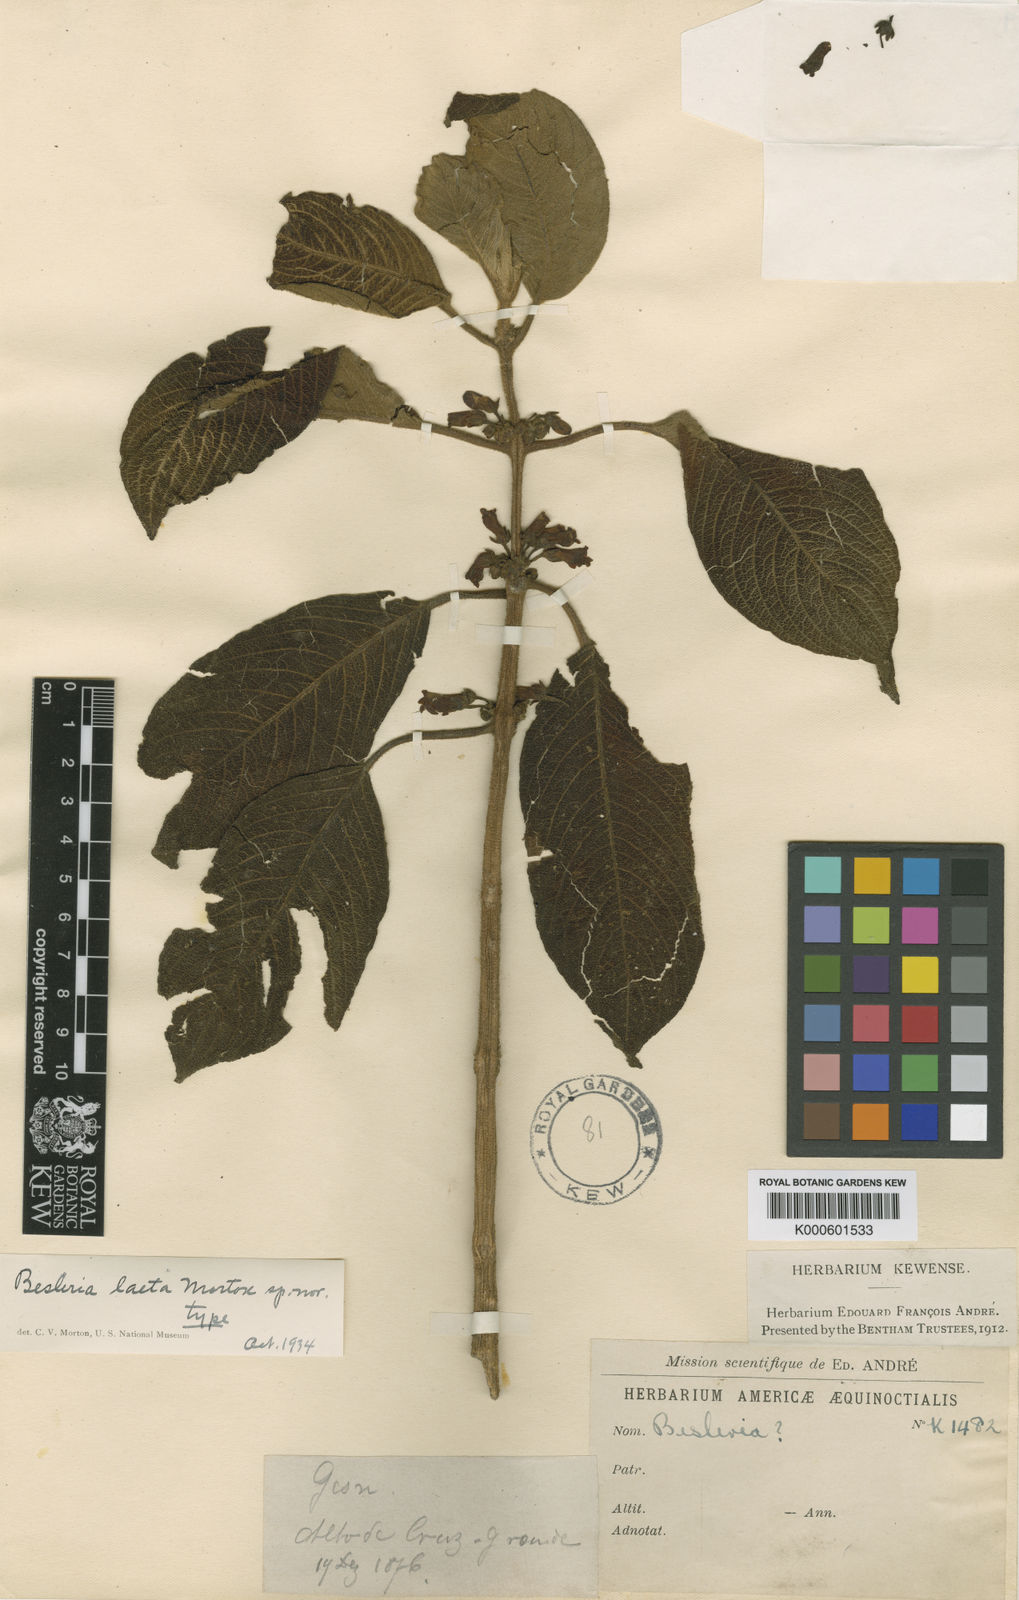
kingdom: Plantae
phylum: Tracheophyta
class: Magnoliopsida
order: Lamiales
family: Gesneriaceae
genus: Besleria
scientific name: Besleria laeta
